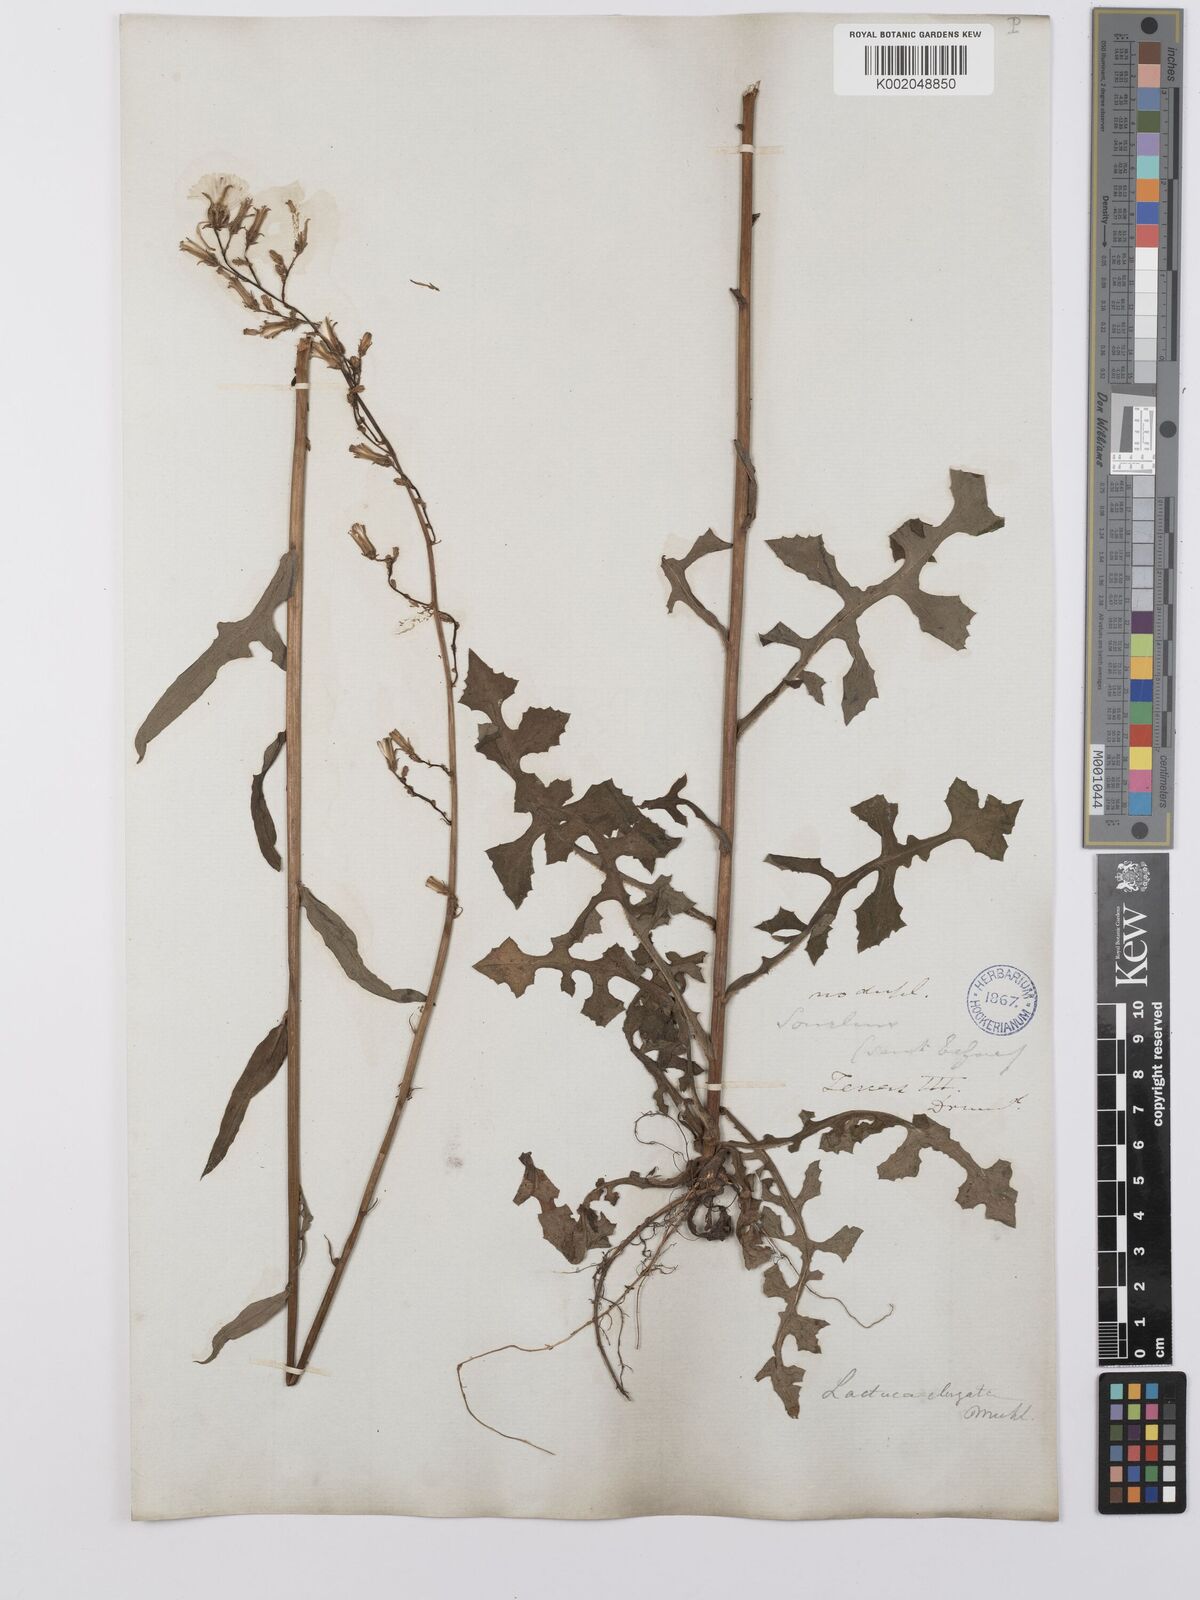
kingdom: Plantae
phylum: Tracheophyta
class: Magnoliopsida
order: Asterales
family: Asteraceae
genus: Lactuca
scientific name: Lactuca canadensis
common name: Canada lettuce
